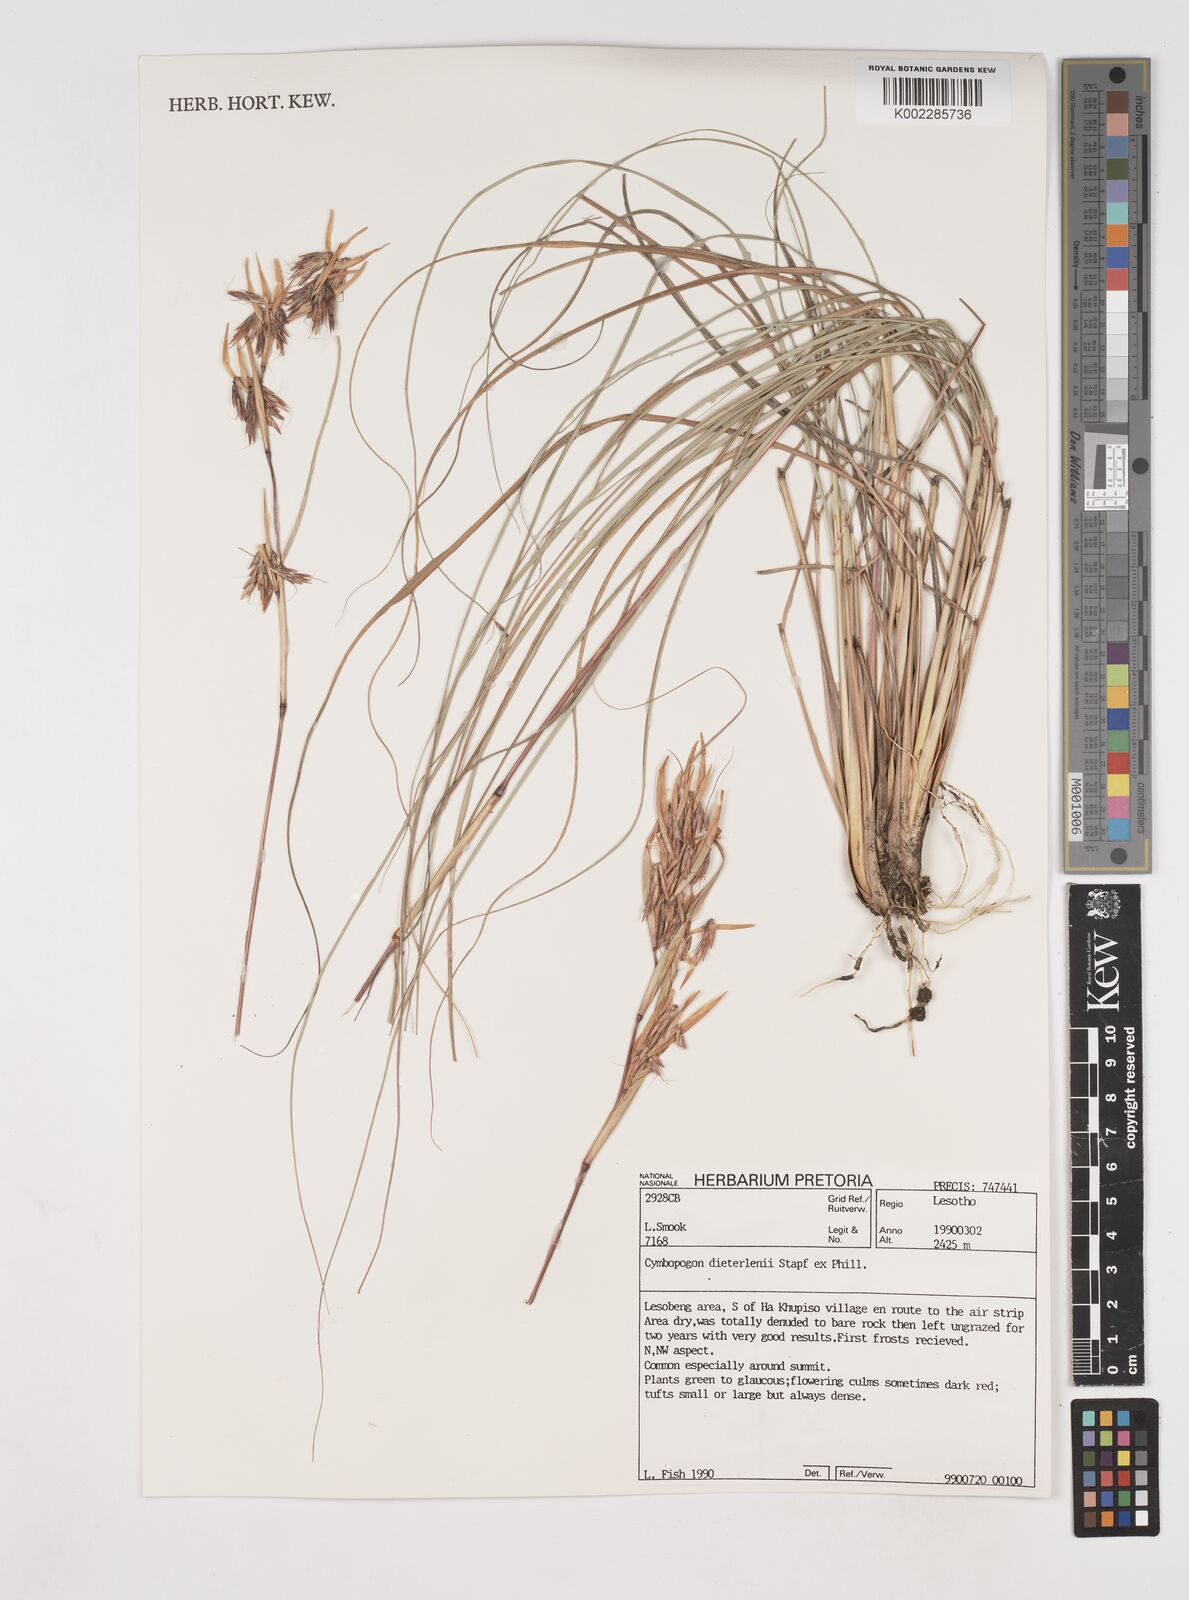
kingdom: Plantae
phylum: Tracheophyta
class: Liliopsida
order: Poales
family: Poaceae
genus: Cymbopogon
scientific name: Cymbopogon dieterlenii
